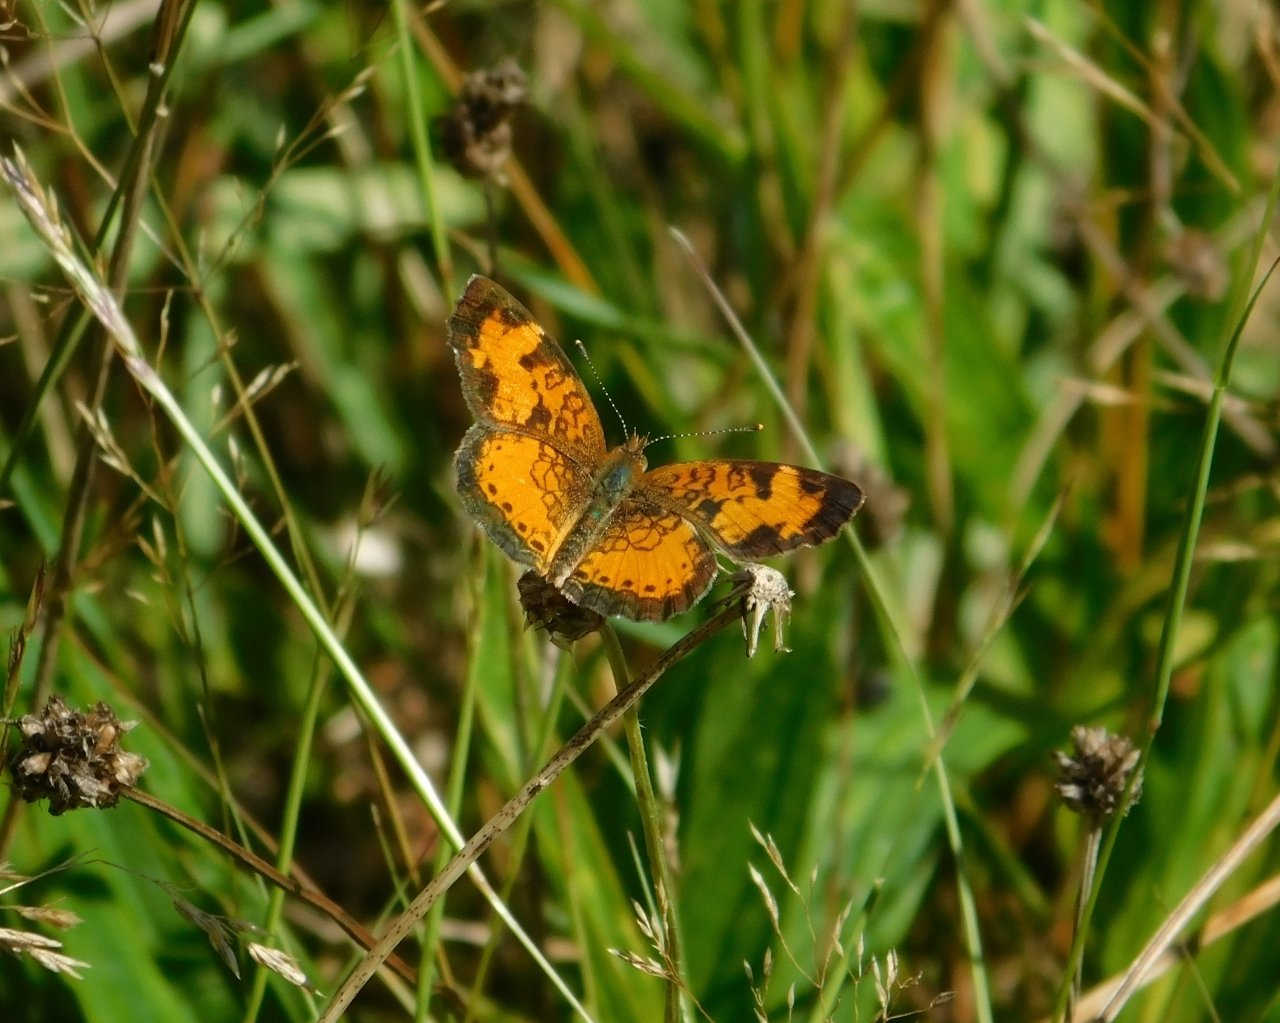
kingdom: Animalia
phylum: Arthropoda
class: Insecta
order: Lepidoptera
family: Nymphalidae
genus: Phyciodes
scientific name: Phyciodes tharos
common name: Northern Crescent
